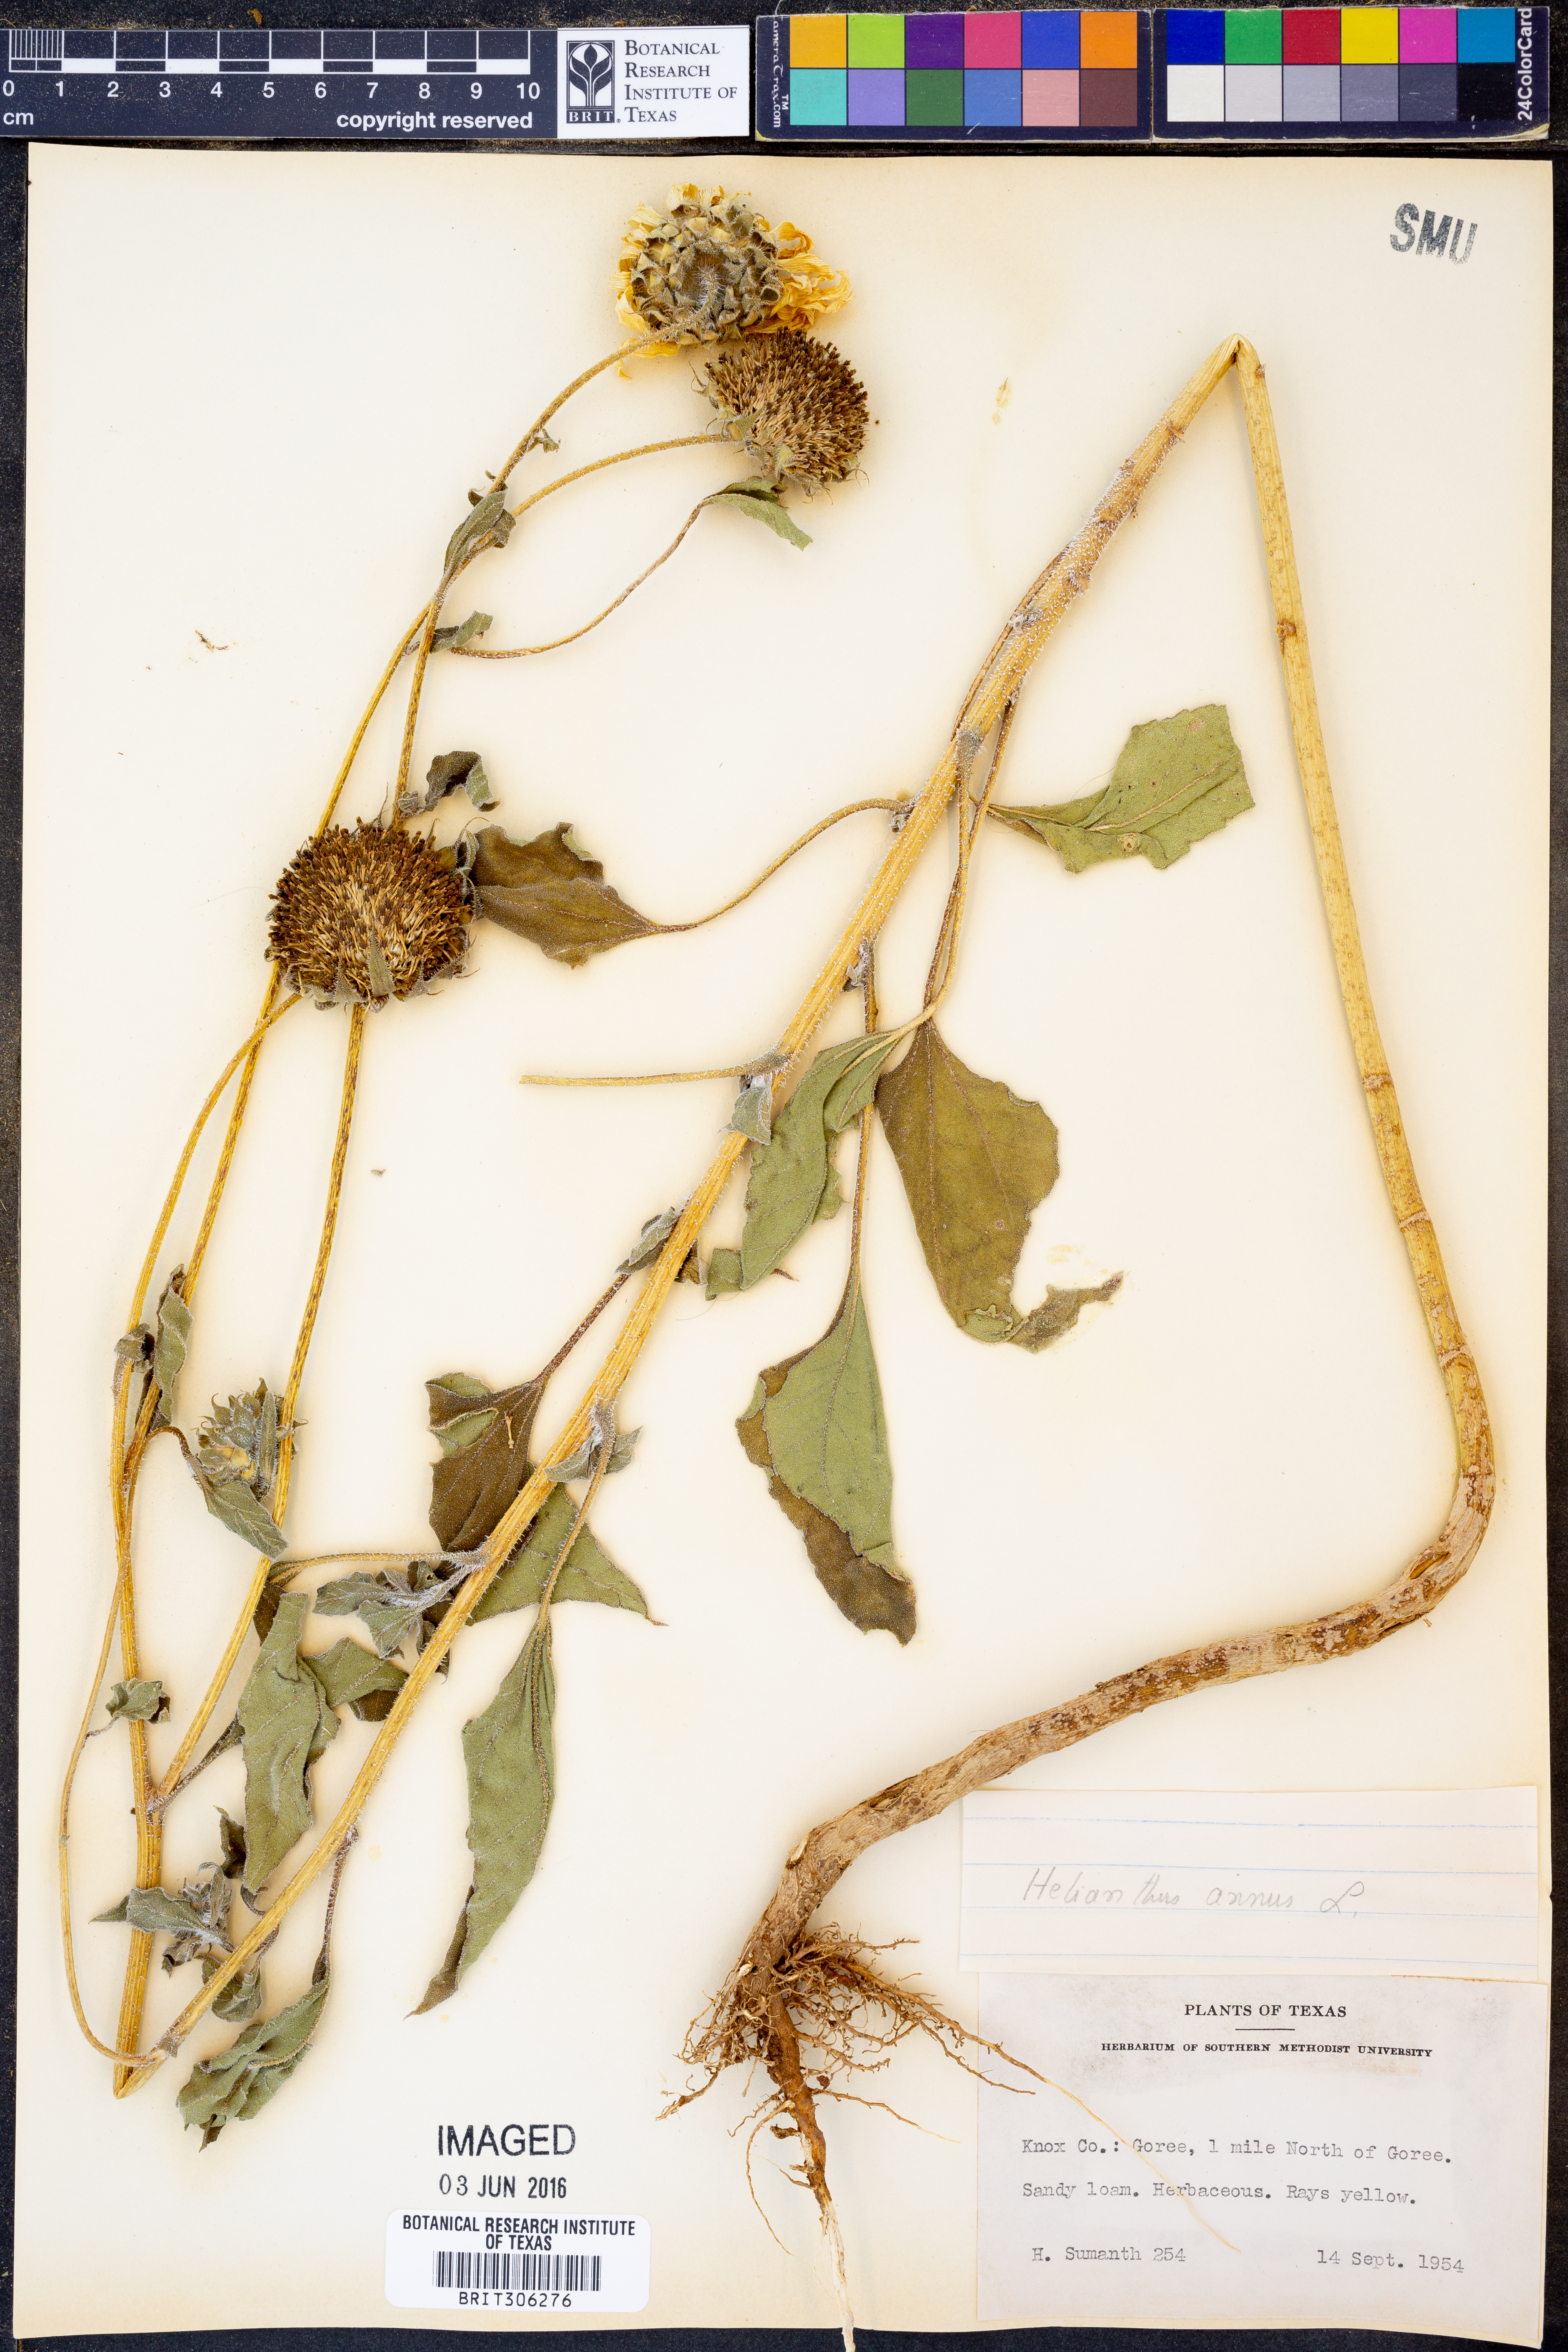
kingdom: Plantae
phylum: Tracheophyta
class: Magnoliopsida
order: Asterales
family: Asteraceae
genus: Helianthus
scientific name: Helianthus annuus
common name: Sunflower
